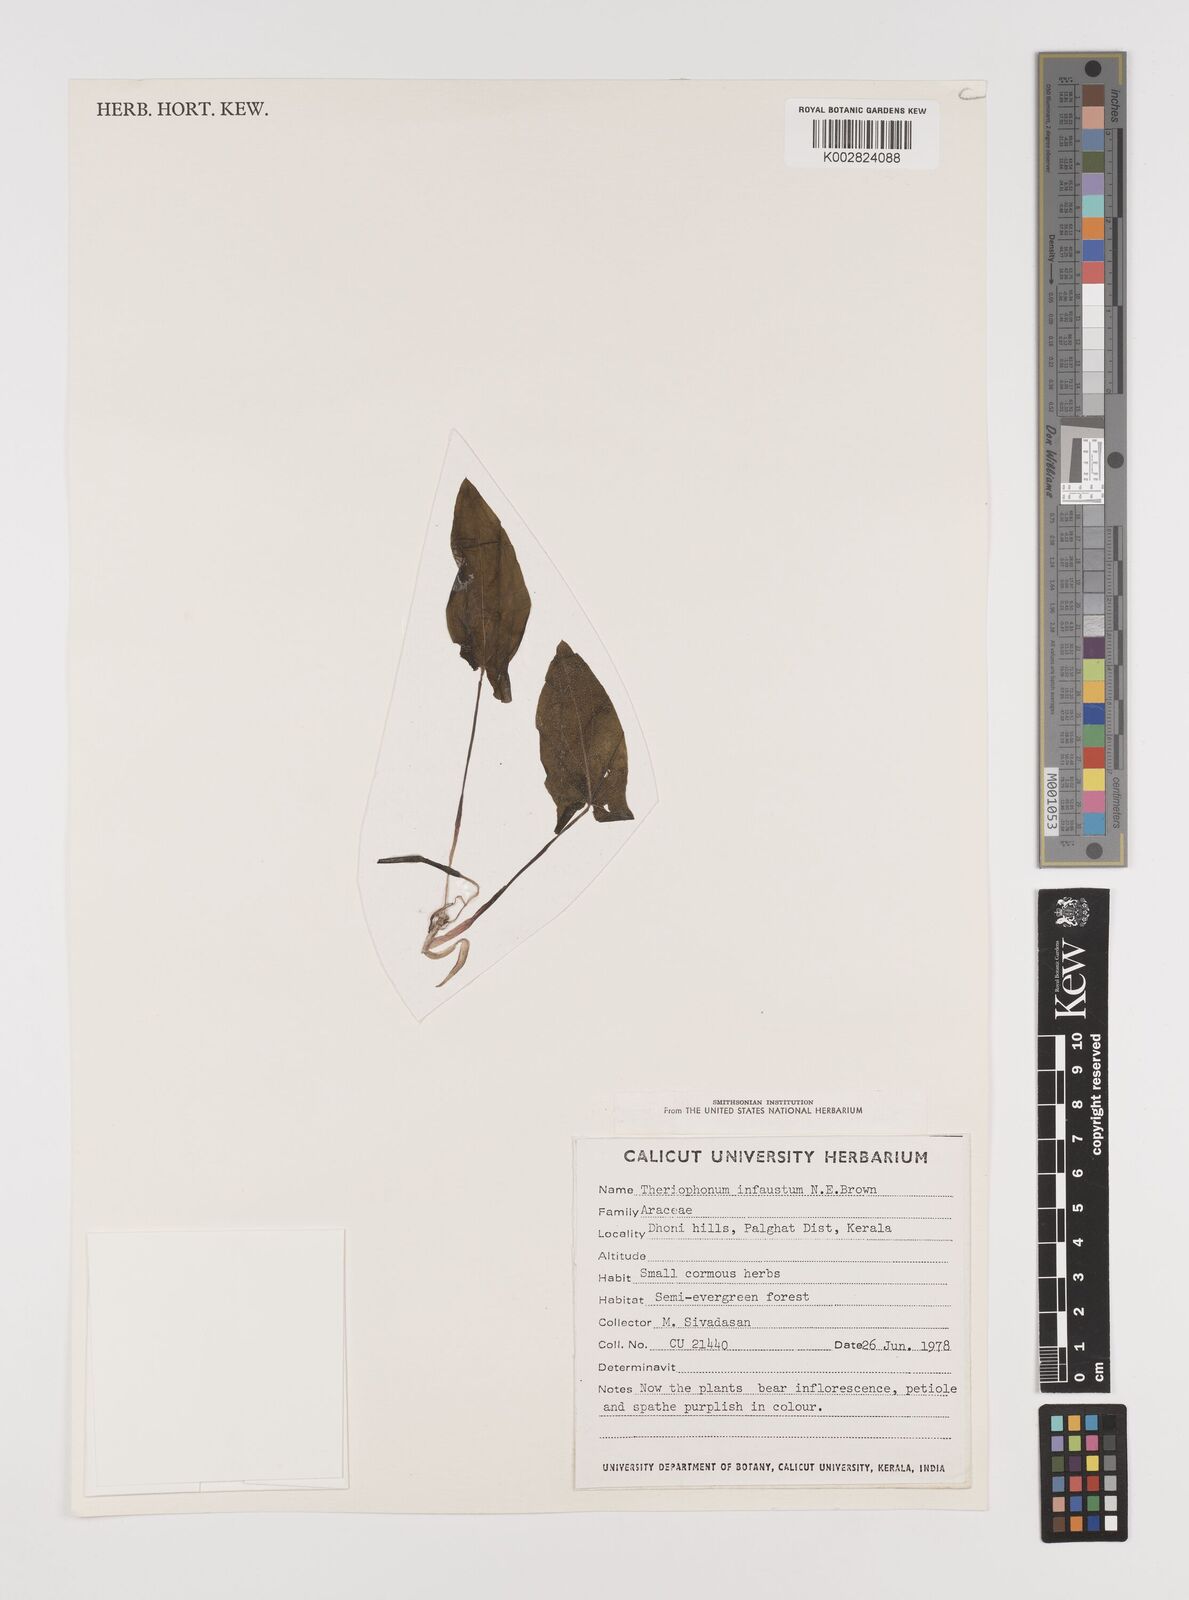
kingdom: Plantae
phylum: Tracheophyta
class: Liliopsida
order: Alismatales
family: Araceae
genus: Theriophonum
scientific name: Theriophonum infaustum
